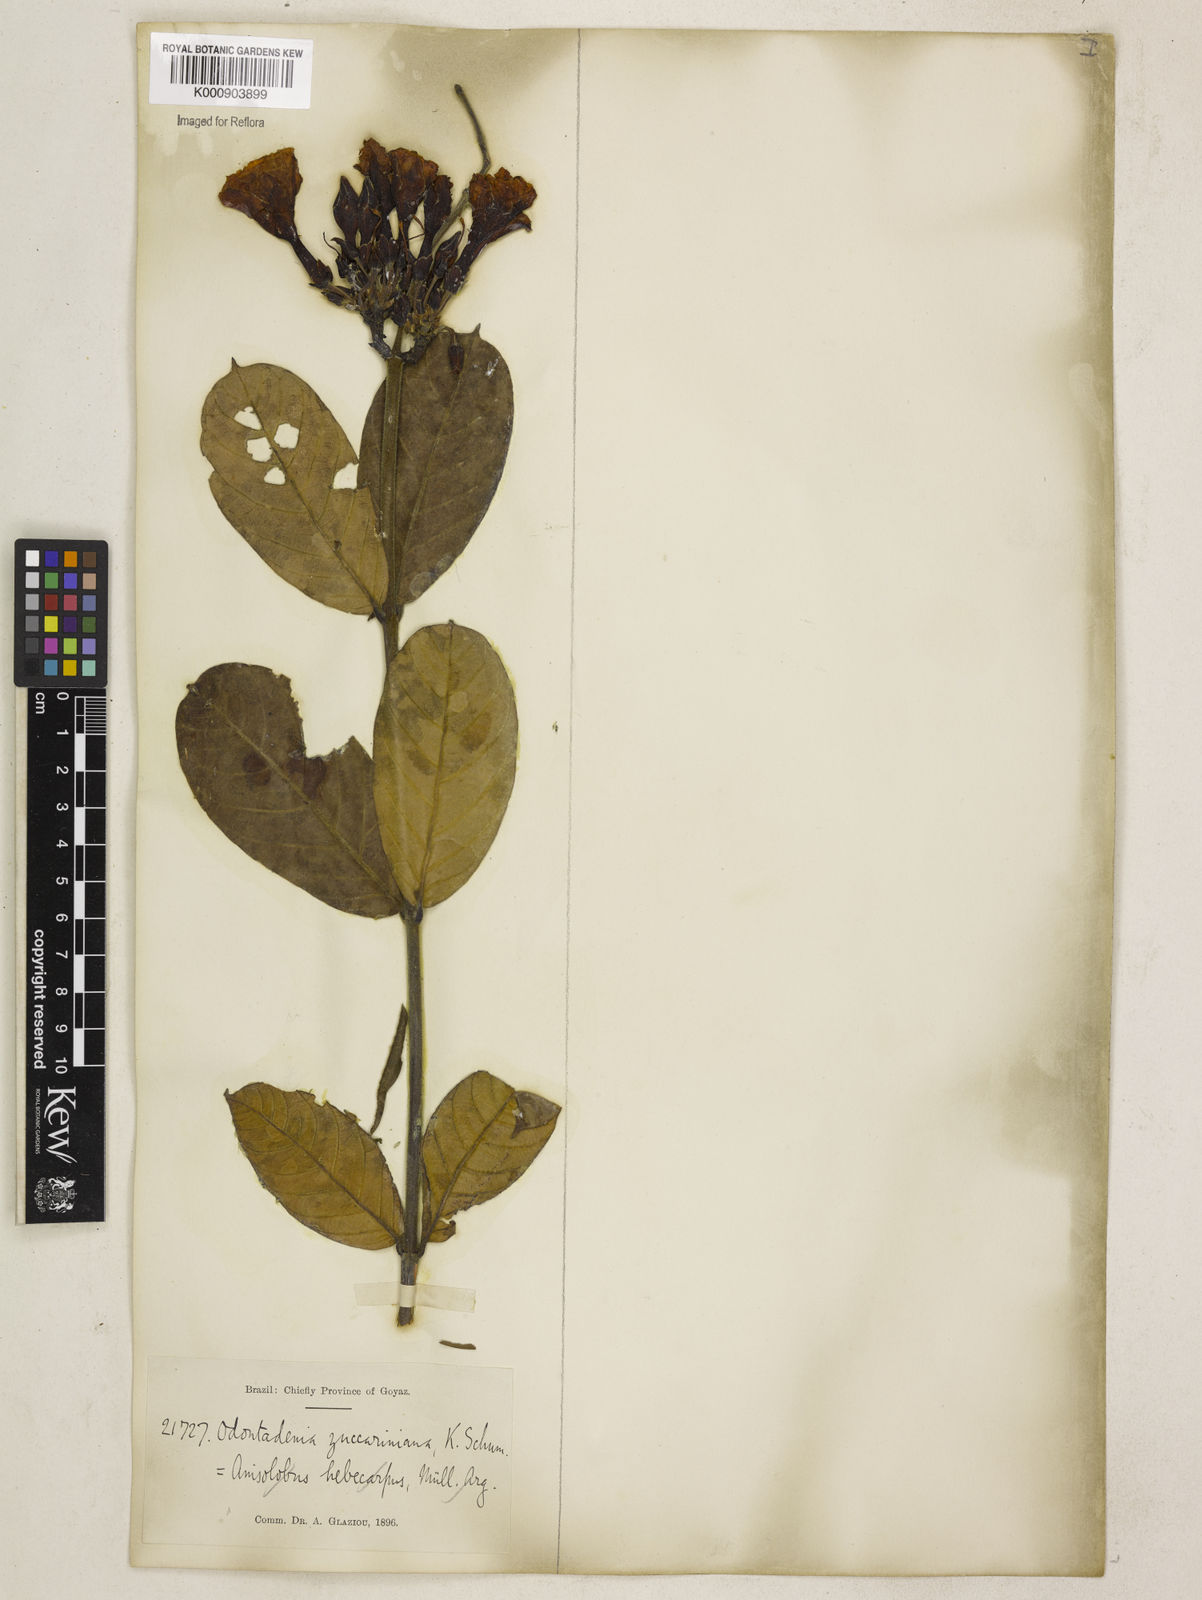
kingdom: Plantae
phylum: Tracheophyta
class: Magnoliopsida
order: Gentianales
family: Apocynaceae
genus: Odontadenia
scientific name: Odontadenia lutea
